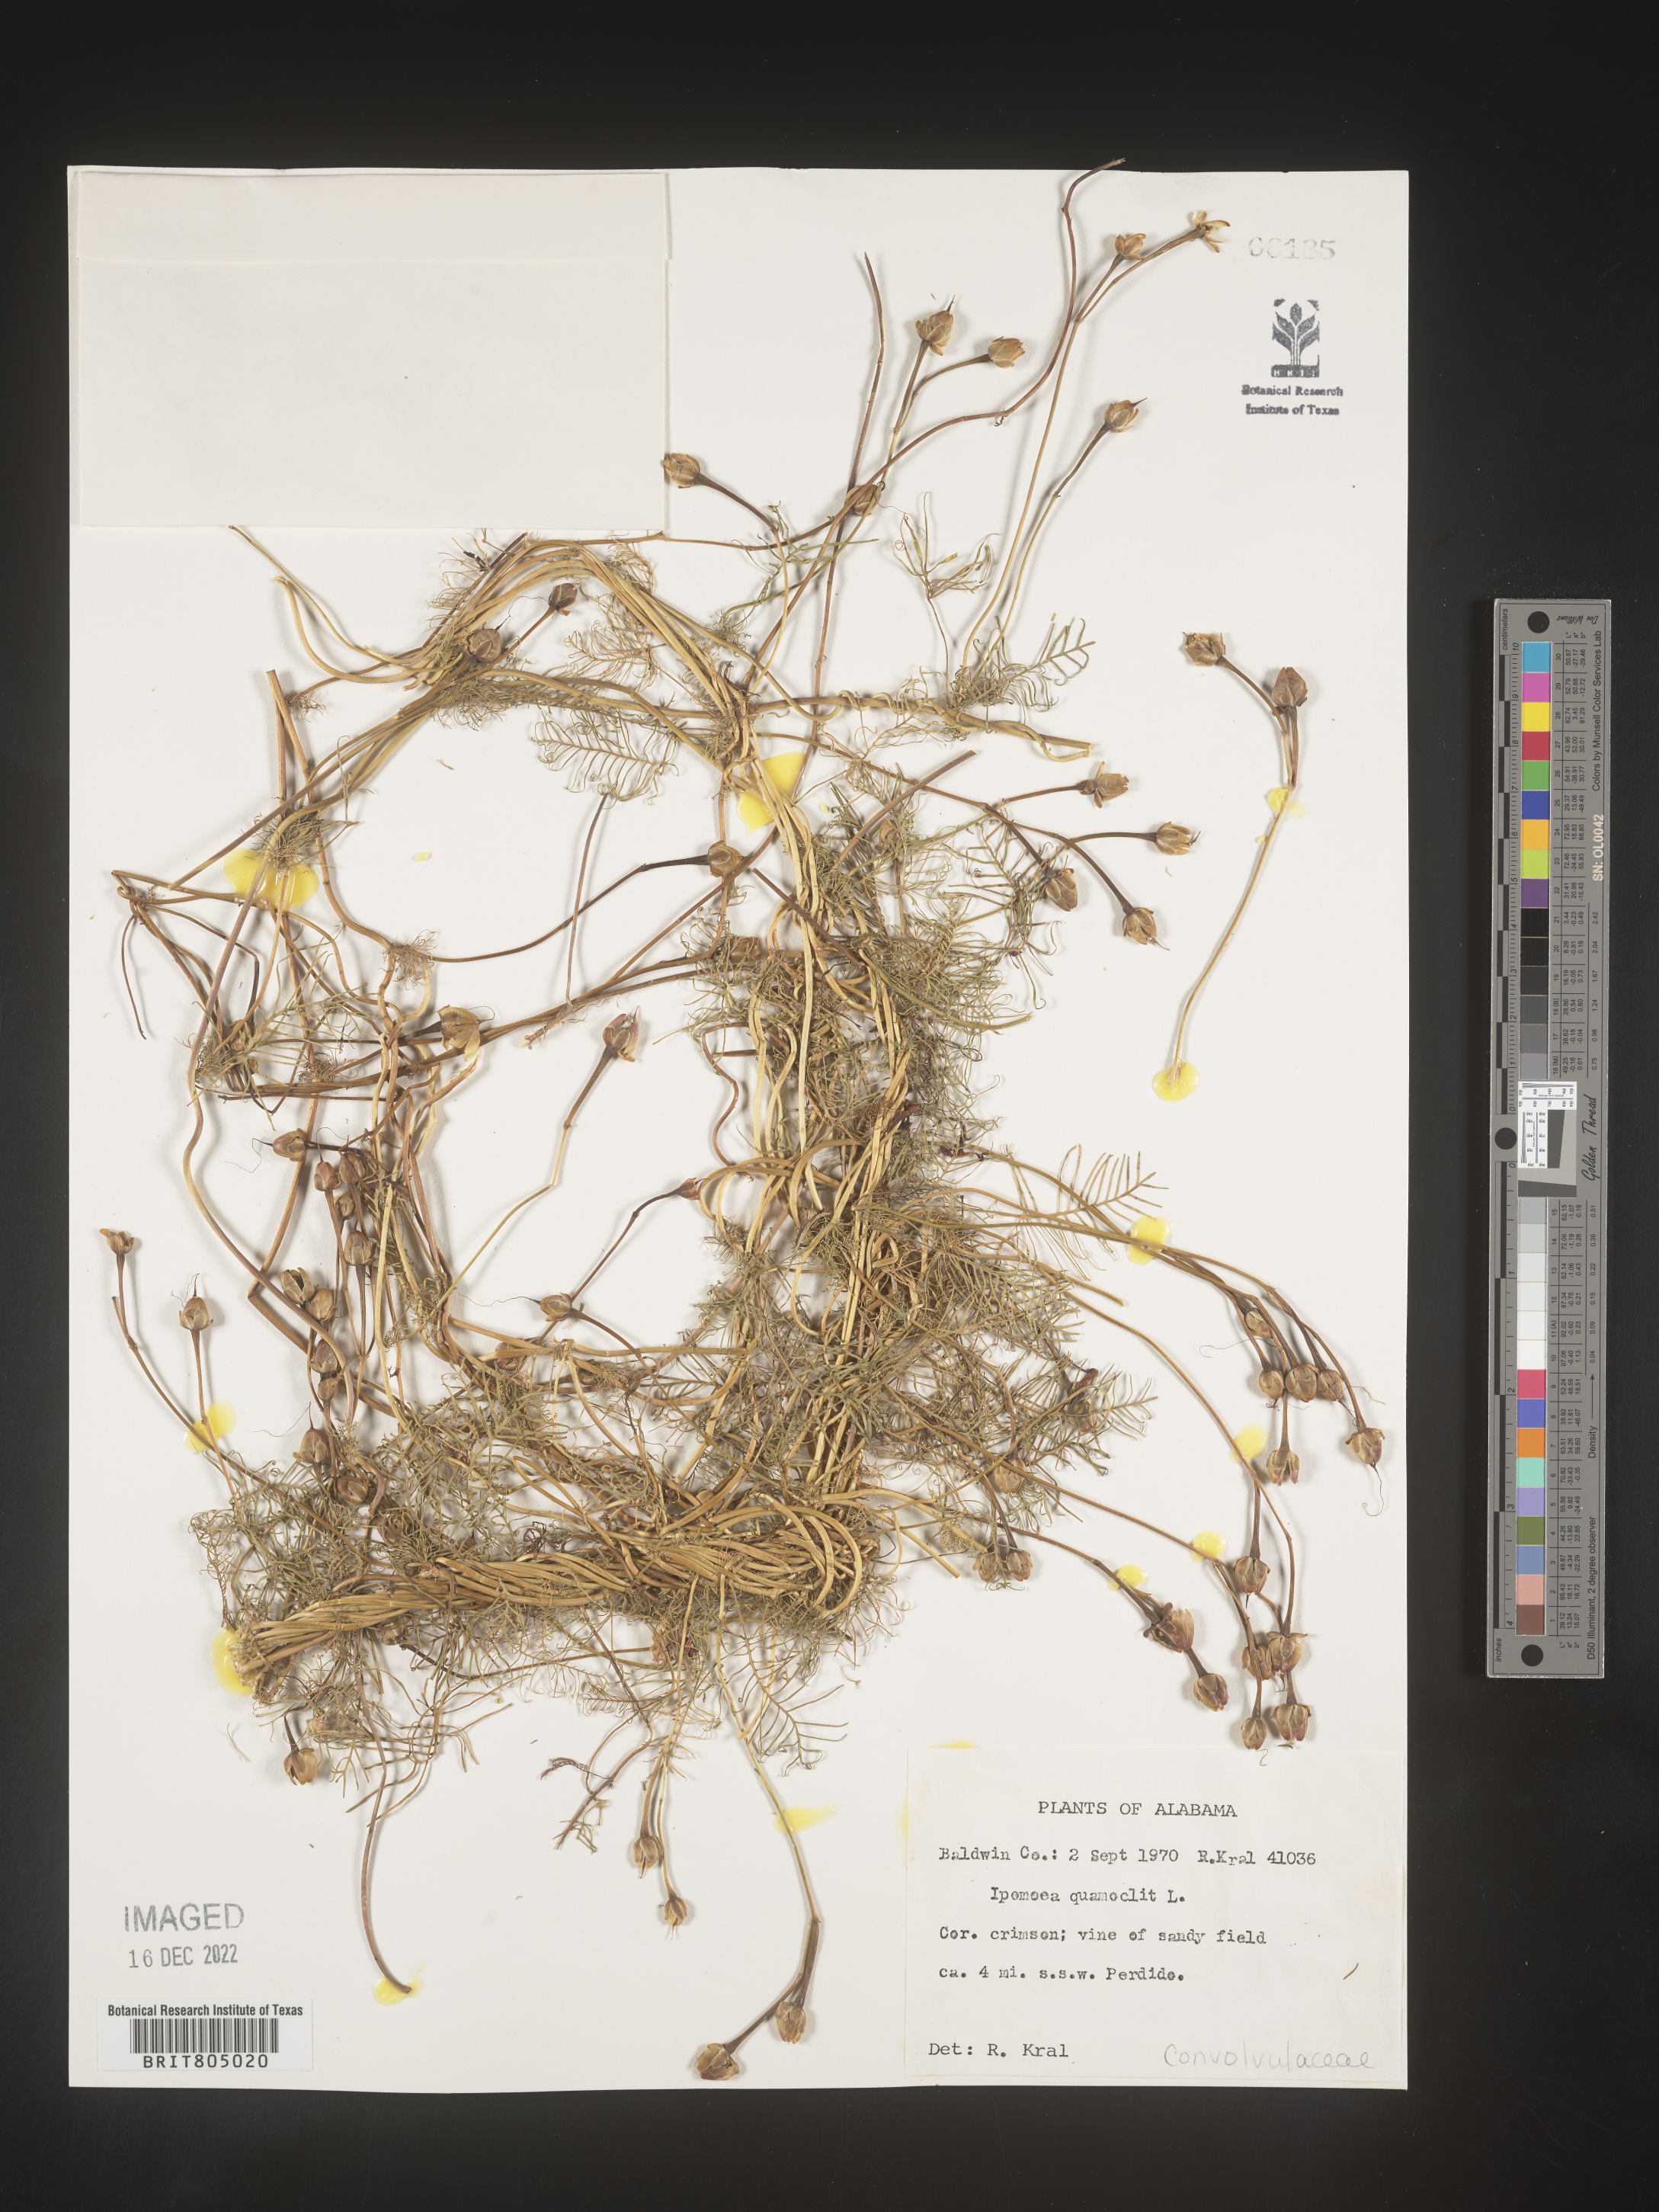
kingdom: Plantae
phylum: Tracheophyta
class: Magnoliopsida
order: Solanales
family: Convolvulaceae
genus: Ipomoea
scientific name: Ipomoea quamoclit
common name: Cypress vine
